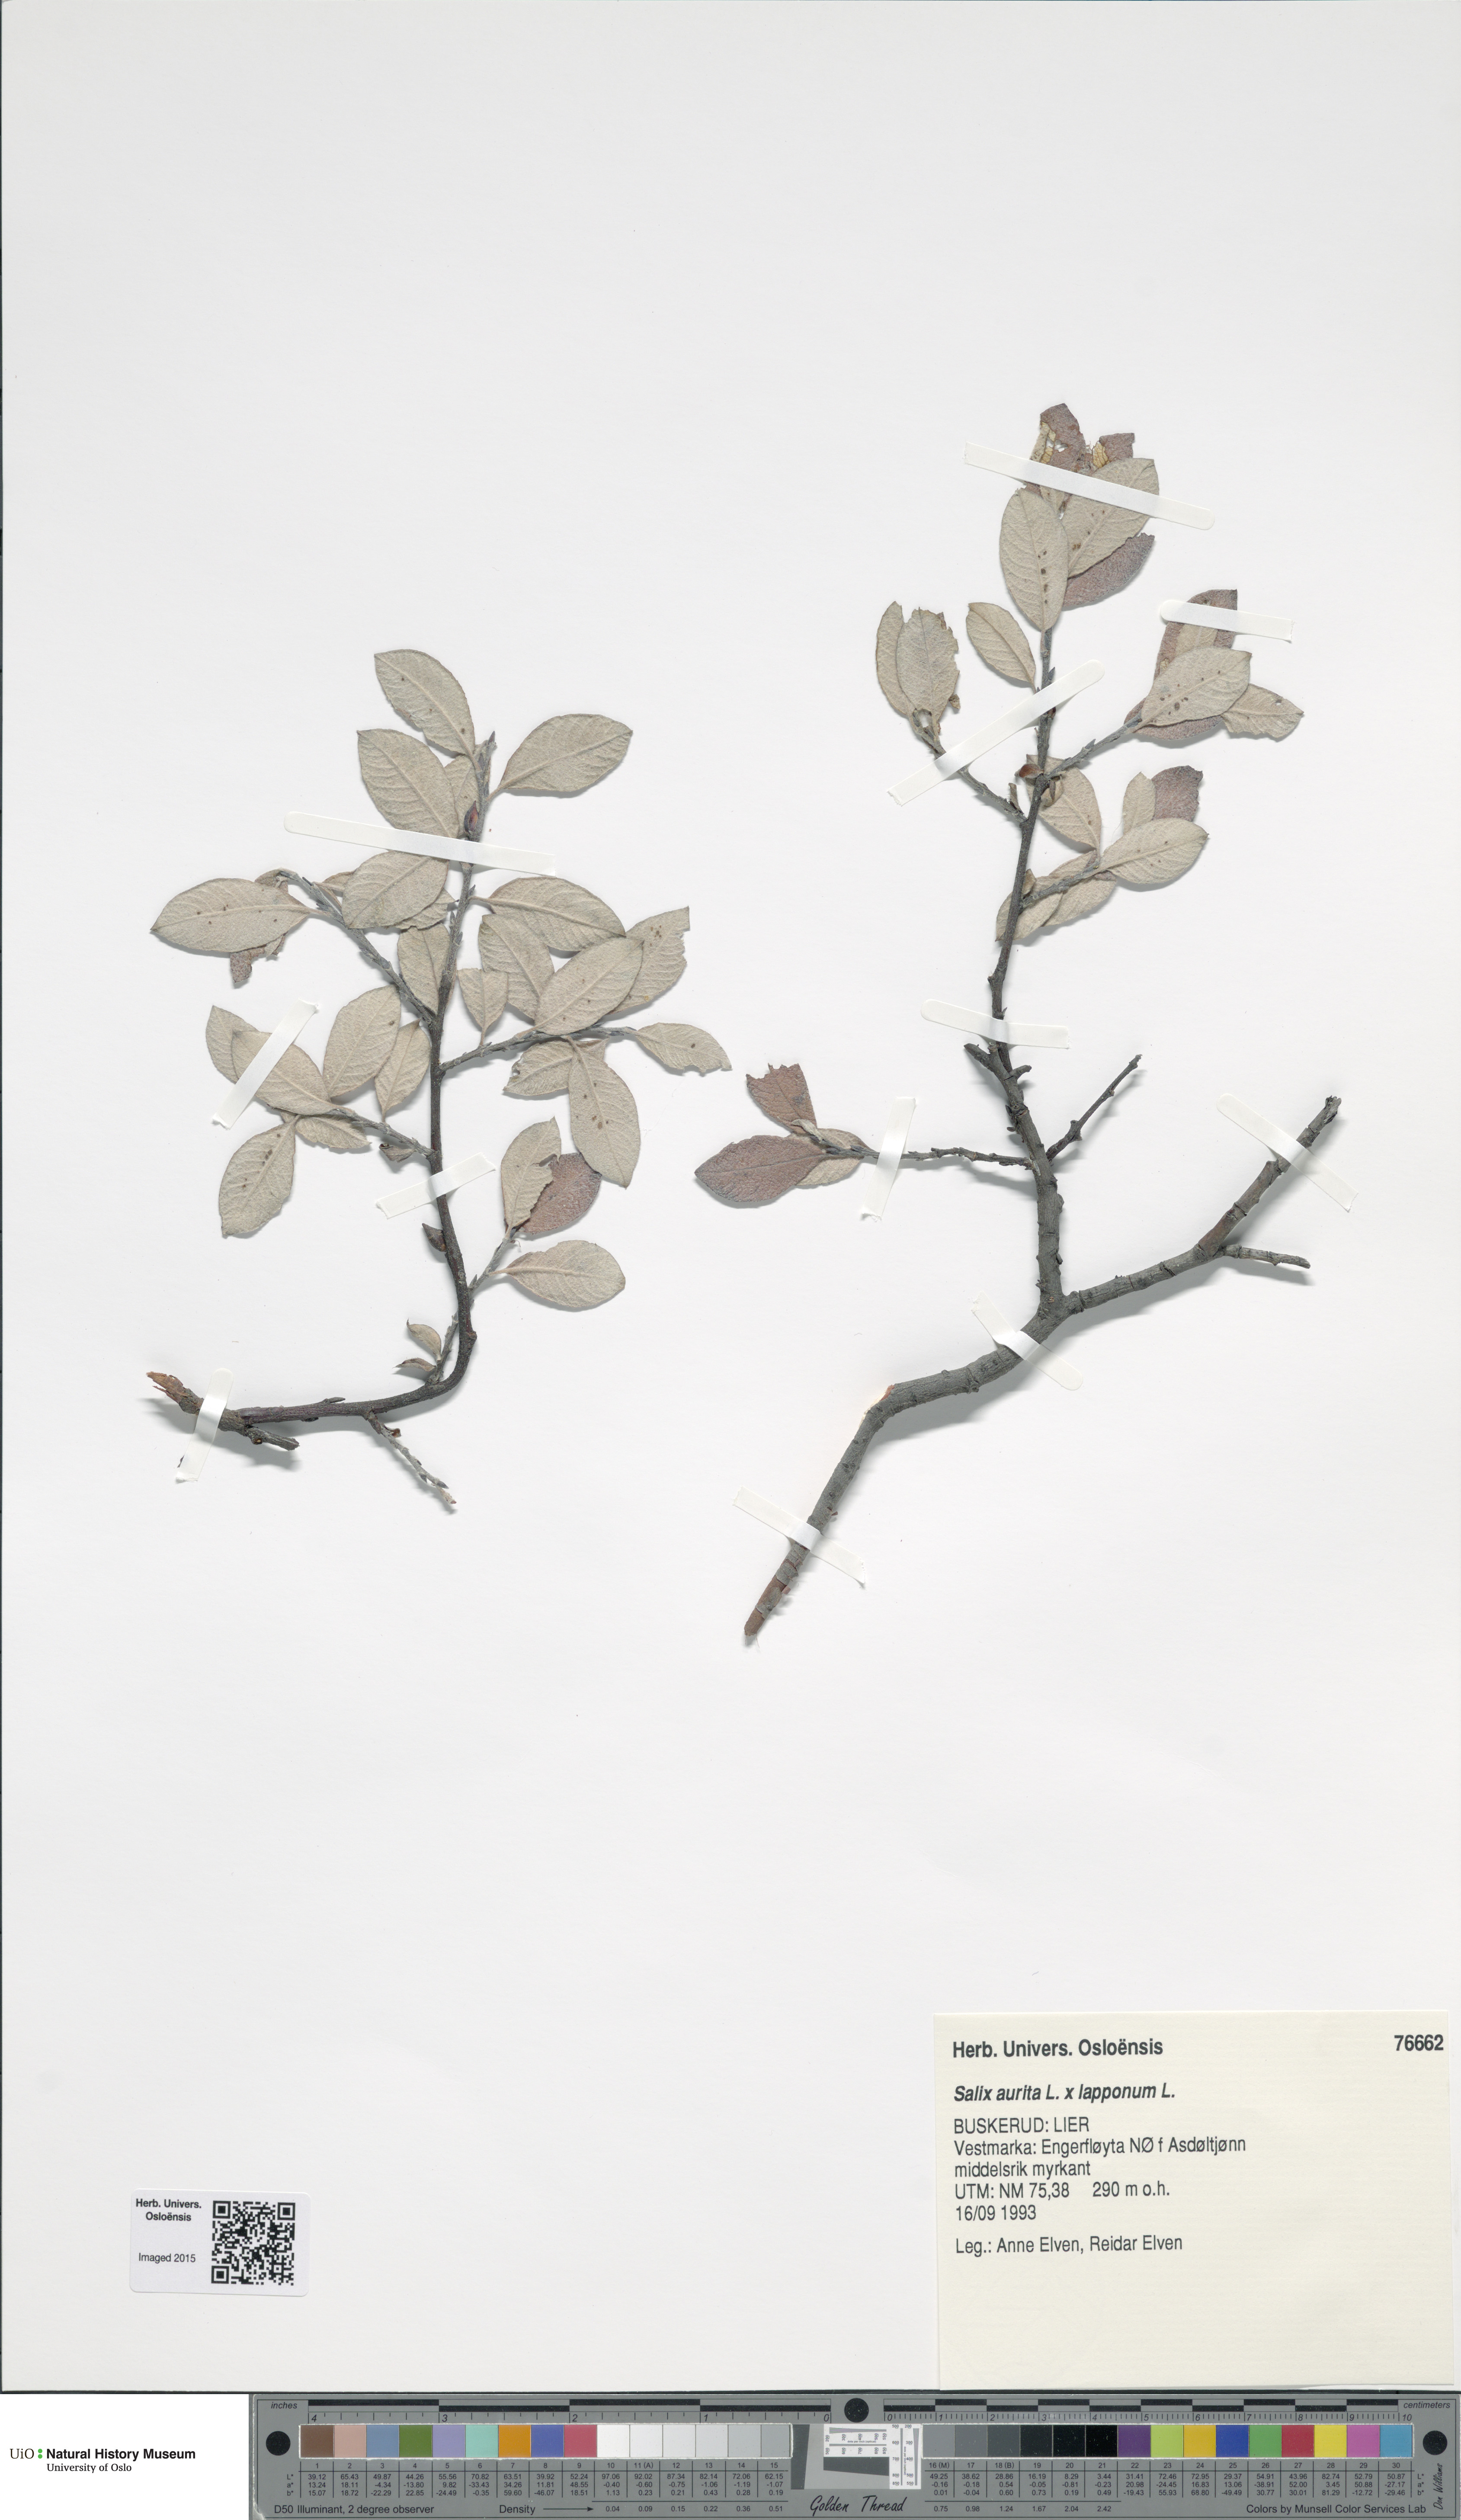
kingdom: Plantae
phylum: Tracheophyta
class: Magnoliopsida
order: Malpighiales
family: Salicaceae
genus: Salix
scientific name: Salix
